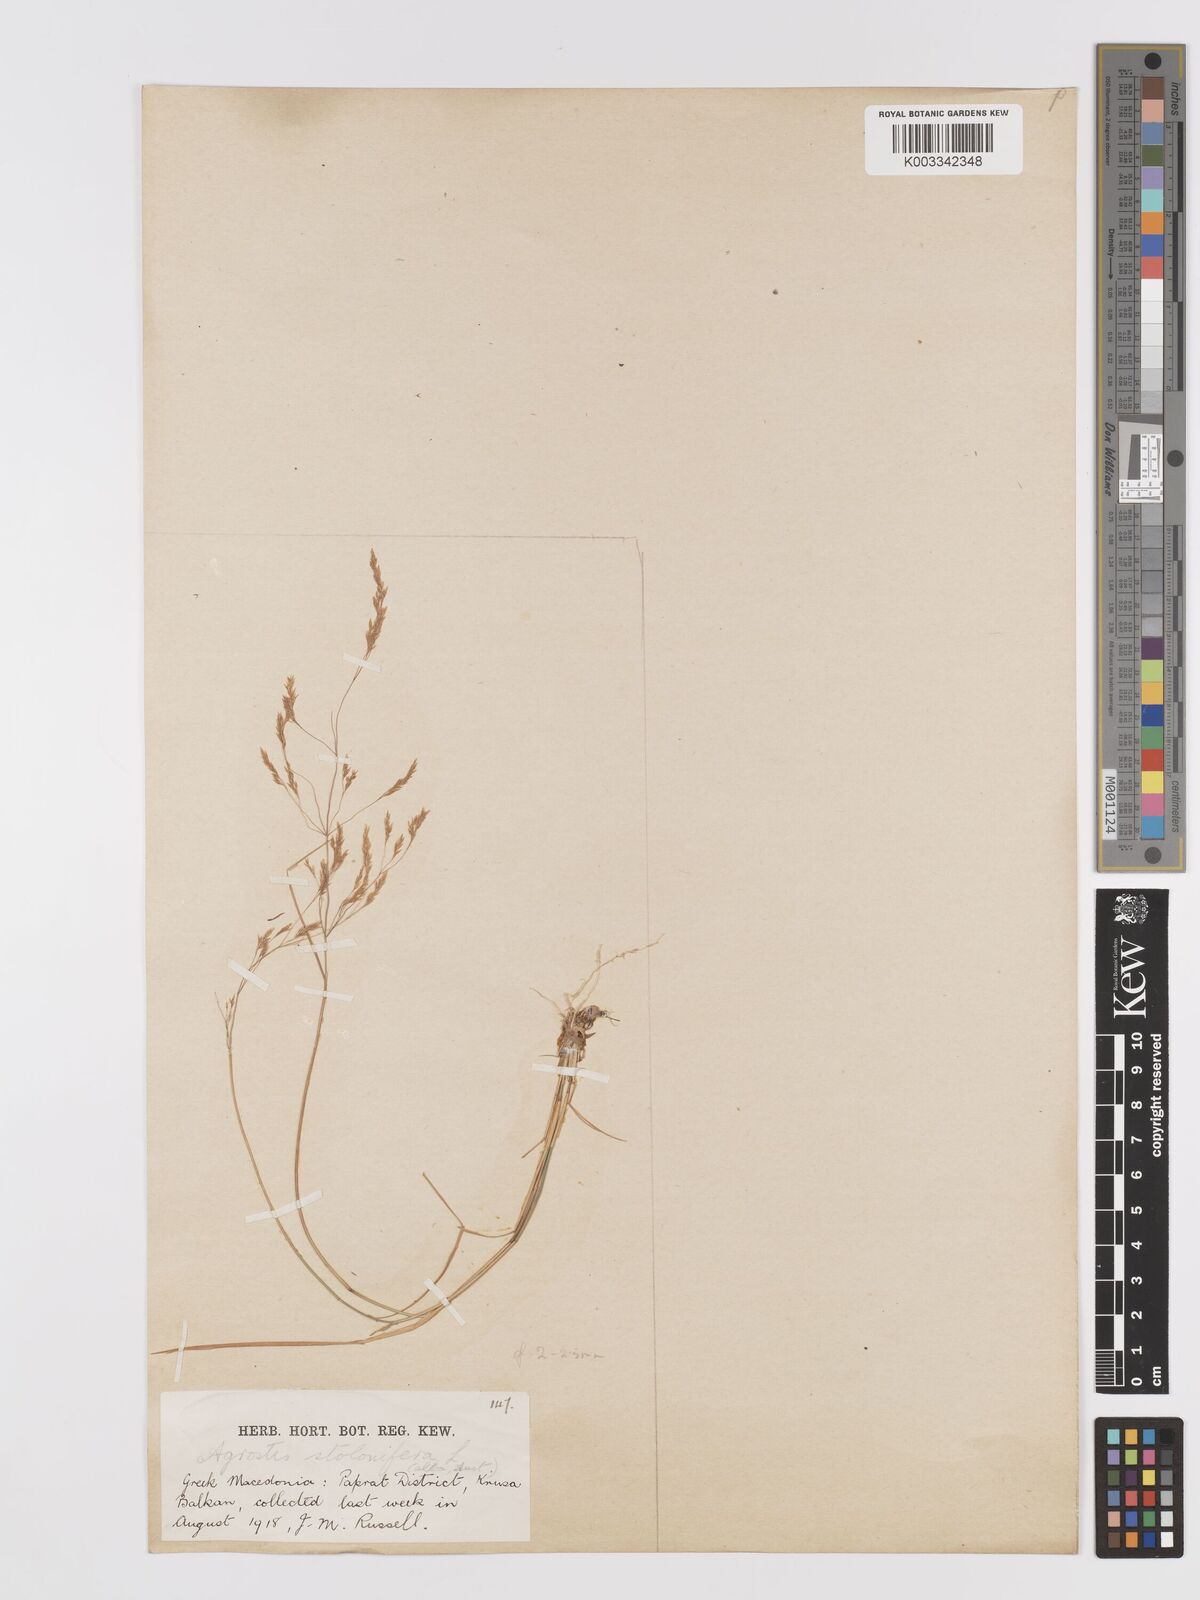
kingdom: Plantae
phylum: Tracheophyta
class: Liliopsida
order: Poales
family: Poaceae
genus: Agrostis
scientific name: Agrostis gigantea
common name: Black bent
